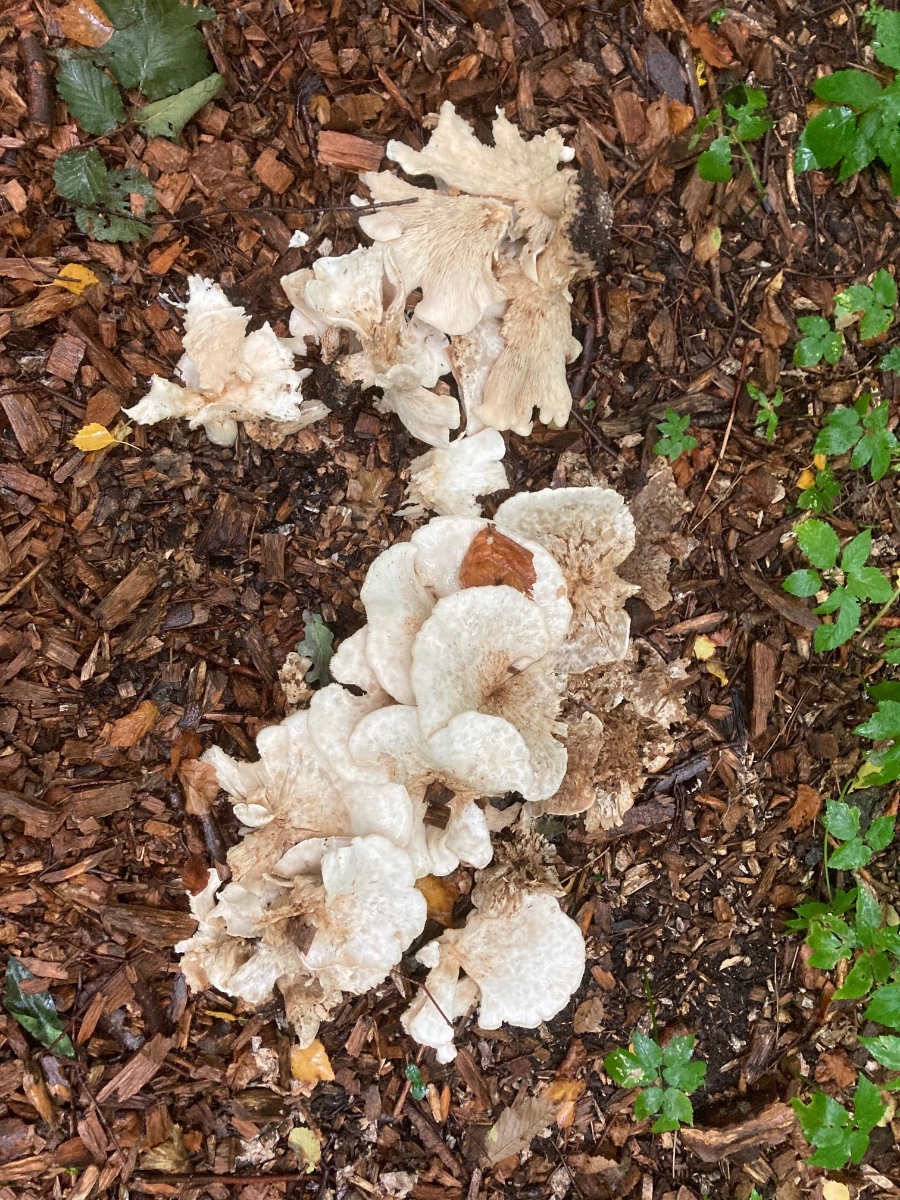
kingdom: Fungi
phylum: Basidiomycota
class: Agaricomycetes
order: Agaricales
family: Tricholomataceae
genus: Aspropaxillus
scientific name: Aspropaxillus giganteus
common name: kæmpe-tragtridderhat
